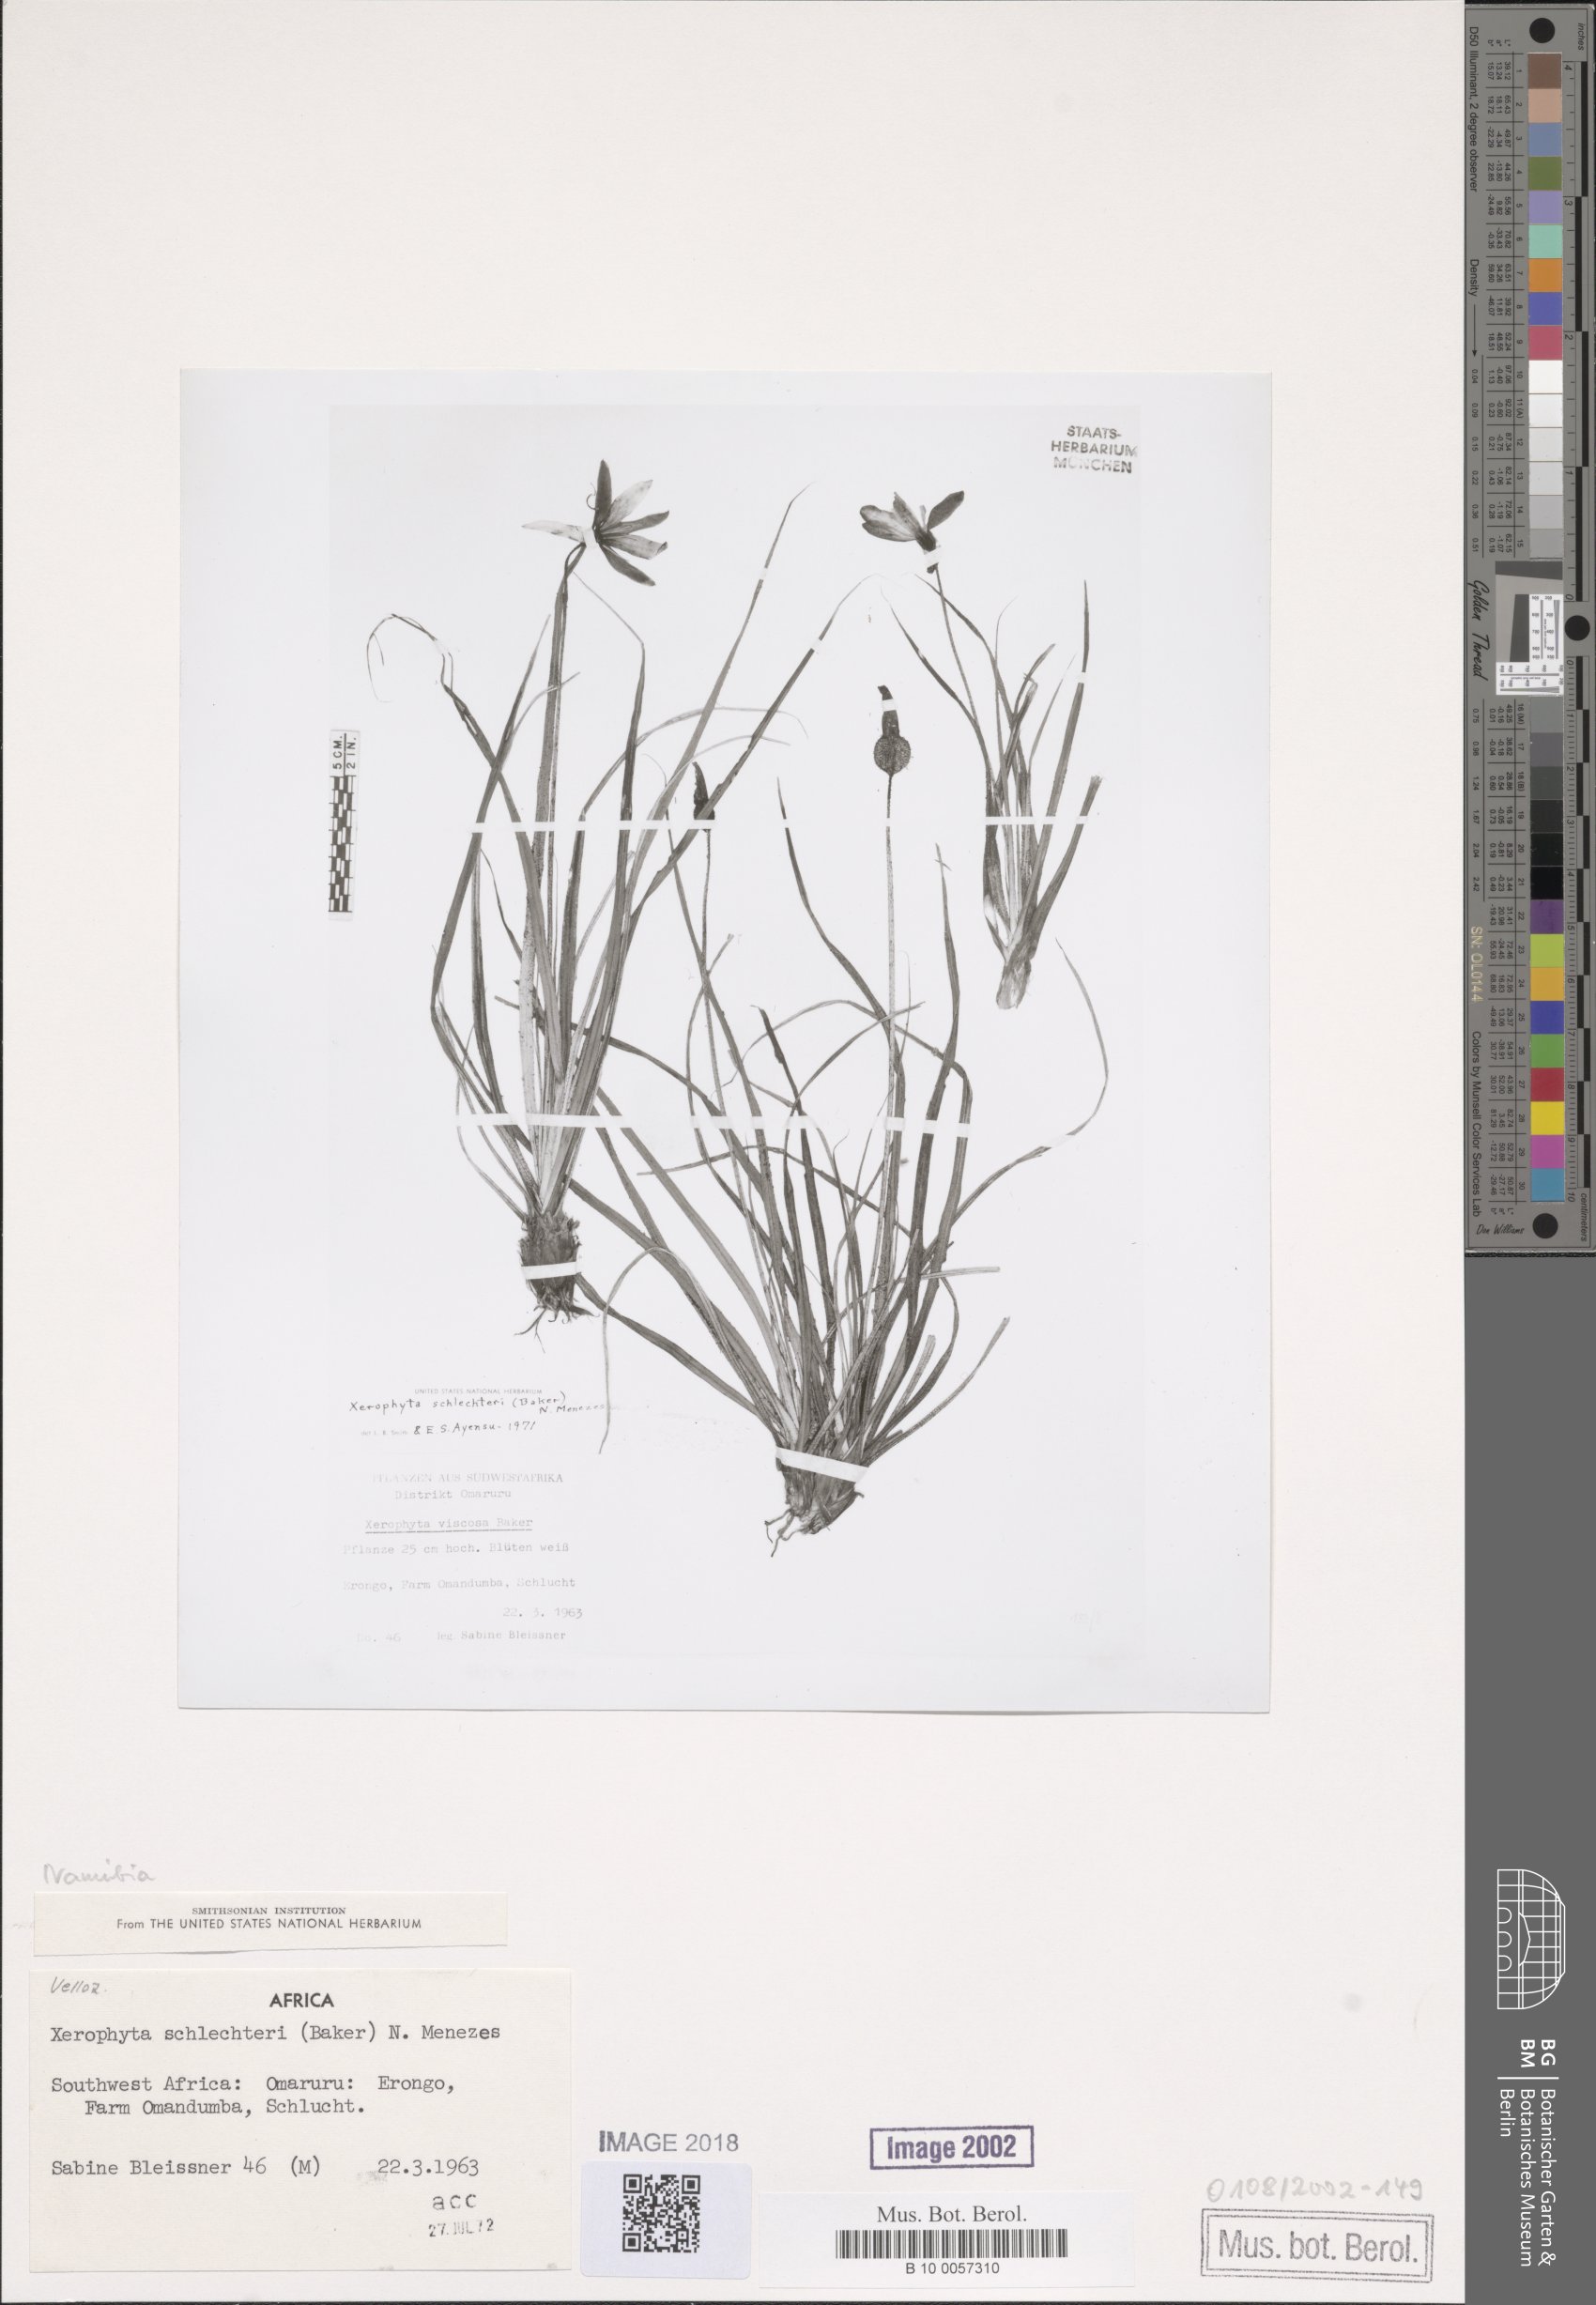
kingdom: Plantae
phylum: Tracheophyta
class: Liliopsida
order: Pandanales
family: Velloziaceae
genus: Xerophyta
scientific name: Xerophyta schlechteri
